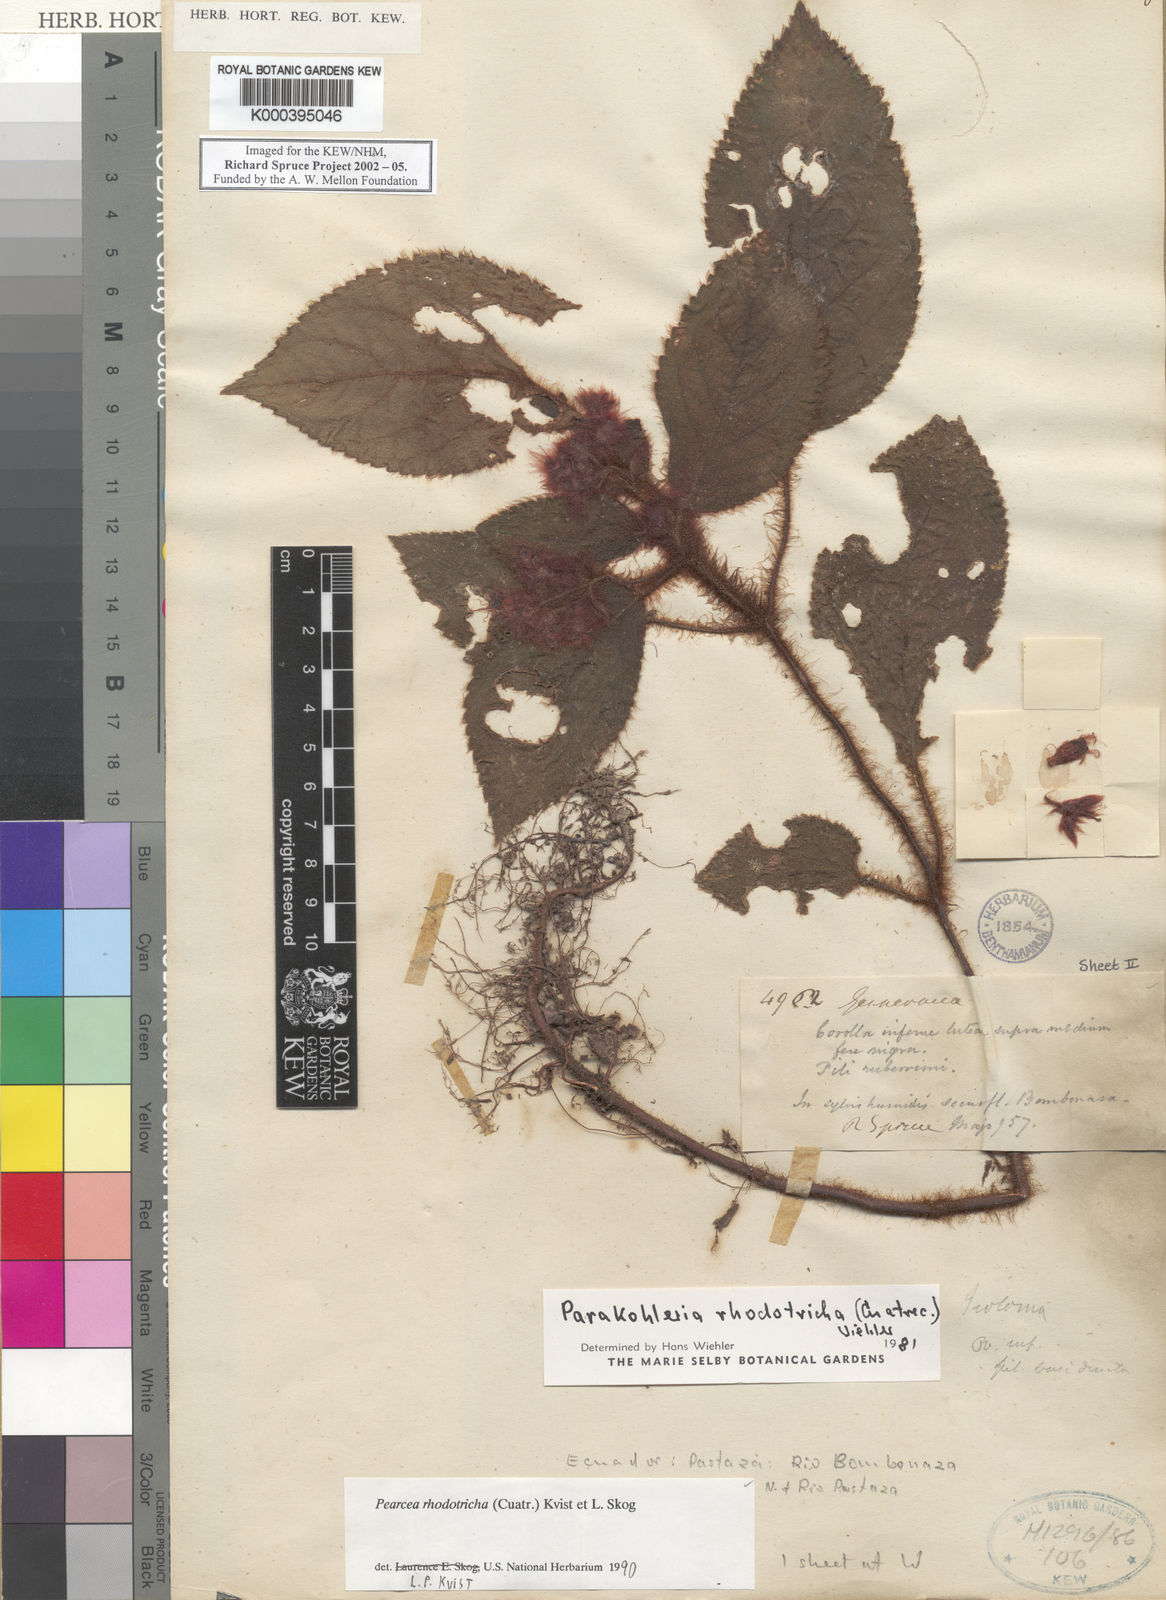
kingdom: Plantae
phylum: Tracheophyta
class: Magnoliopsida
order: Lamiales
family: Gesneriaceae
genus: Pearcea
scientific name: Pearcea rhodotricha
